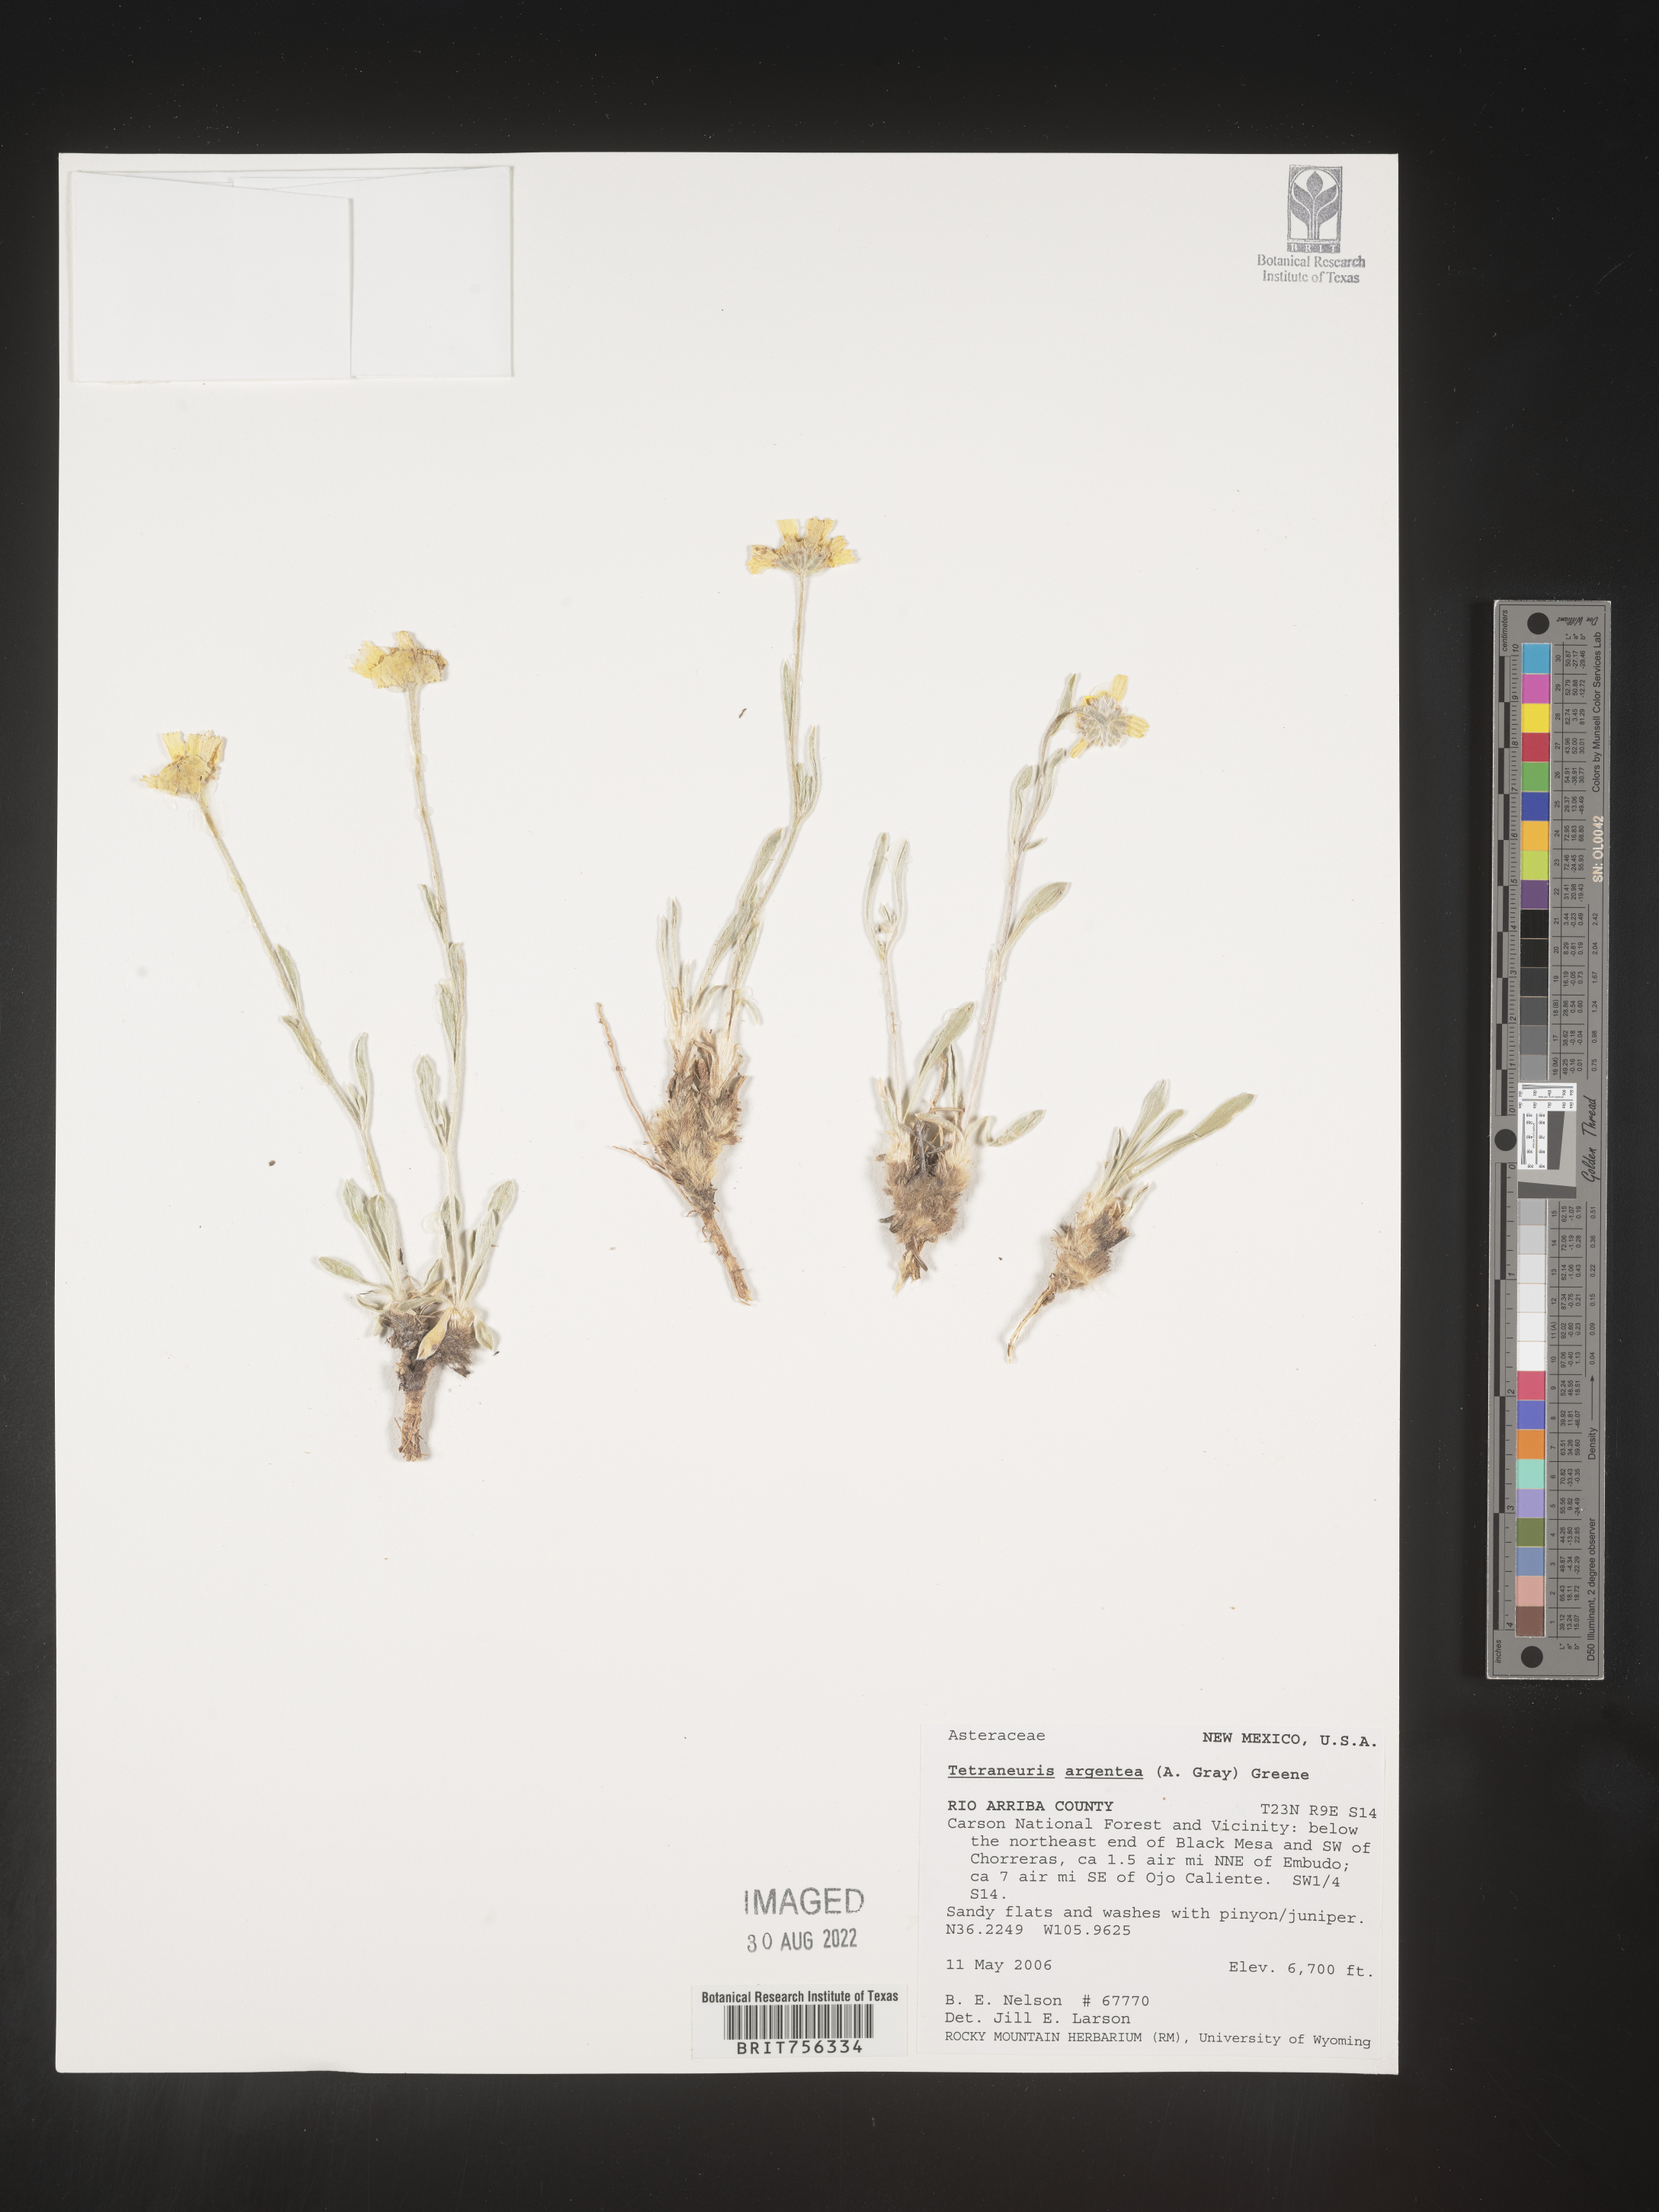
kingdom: Plantae
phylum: Tracheophyta
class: Magnoliopsida
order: Asterales
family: Asteraceae
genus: Tetraneuris
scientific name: Tetraneuris argentea
